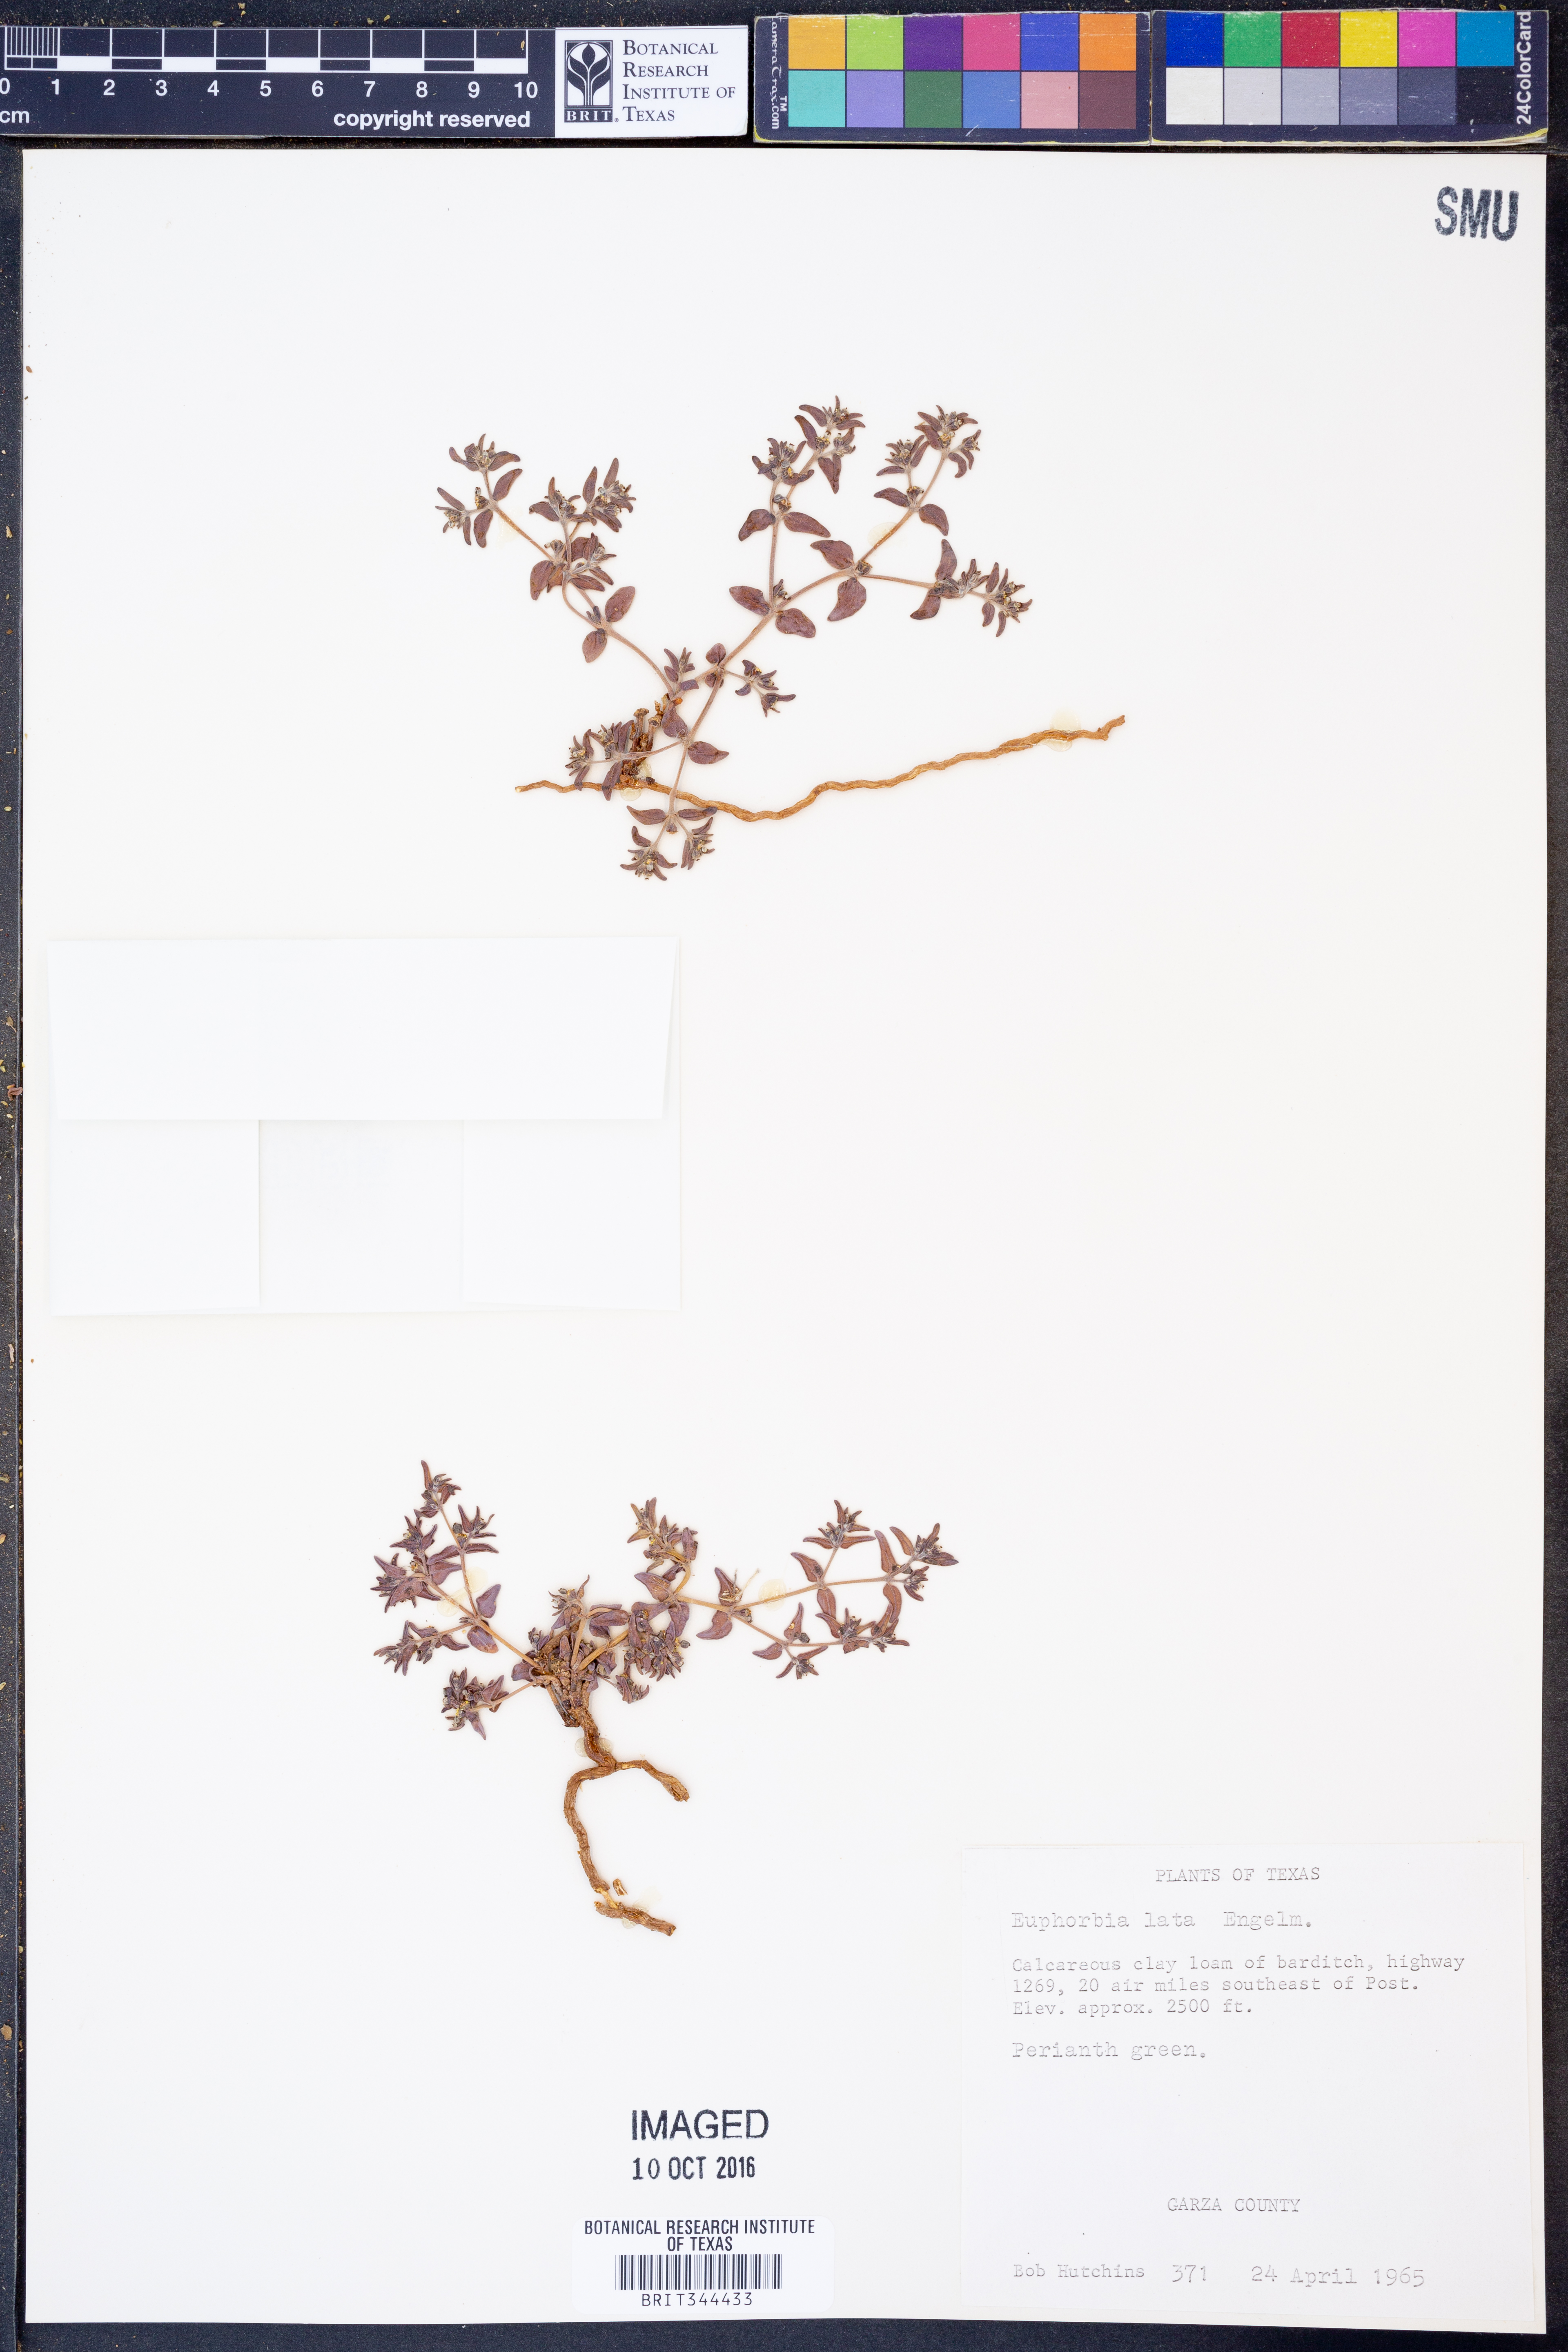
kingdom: Plantae
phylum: Tracheophyta
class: Magnoliopsida
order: Malpighiales
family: Euphorbiaceae
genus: Euphorbia
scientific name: Euphorbia lata
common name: Hoary euphorbia
